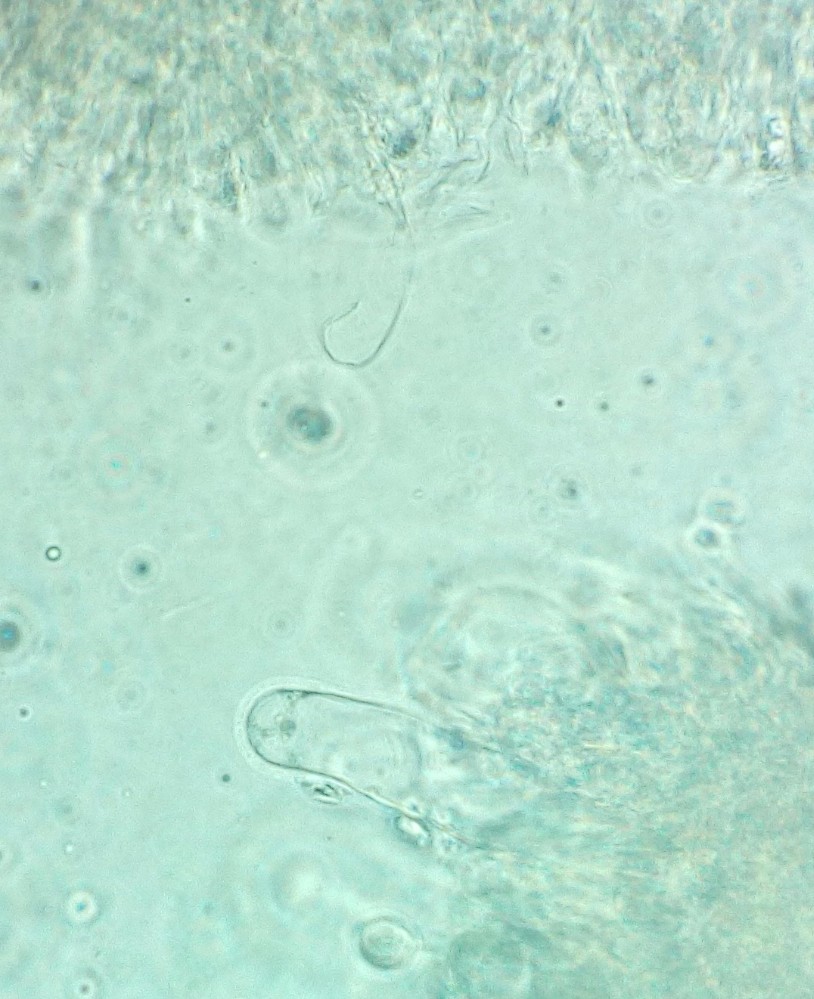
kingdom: Fungi
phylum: Basidiomycota
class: Agaricomycetes
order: Agaricales
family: Porotheleaceae
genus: Phloeomana
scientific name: Phloeomana minutula
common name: bleg huesvamp
